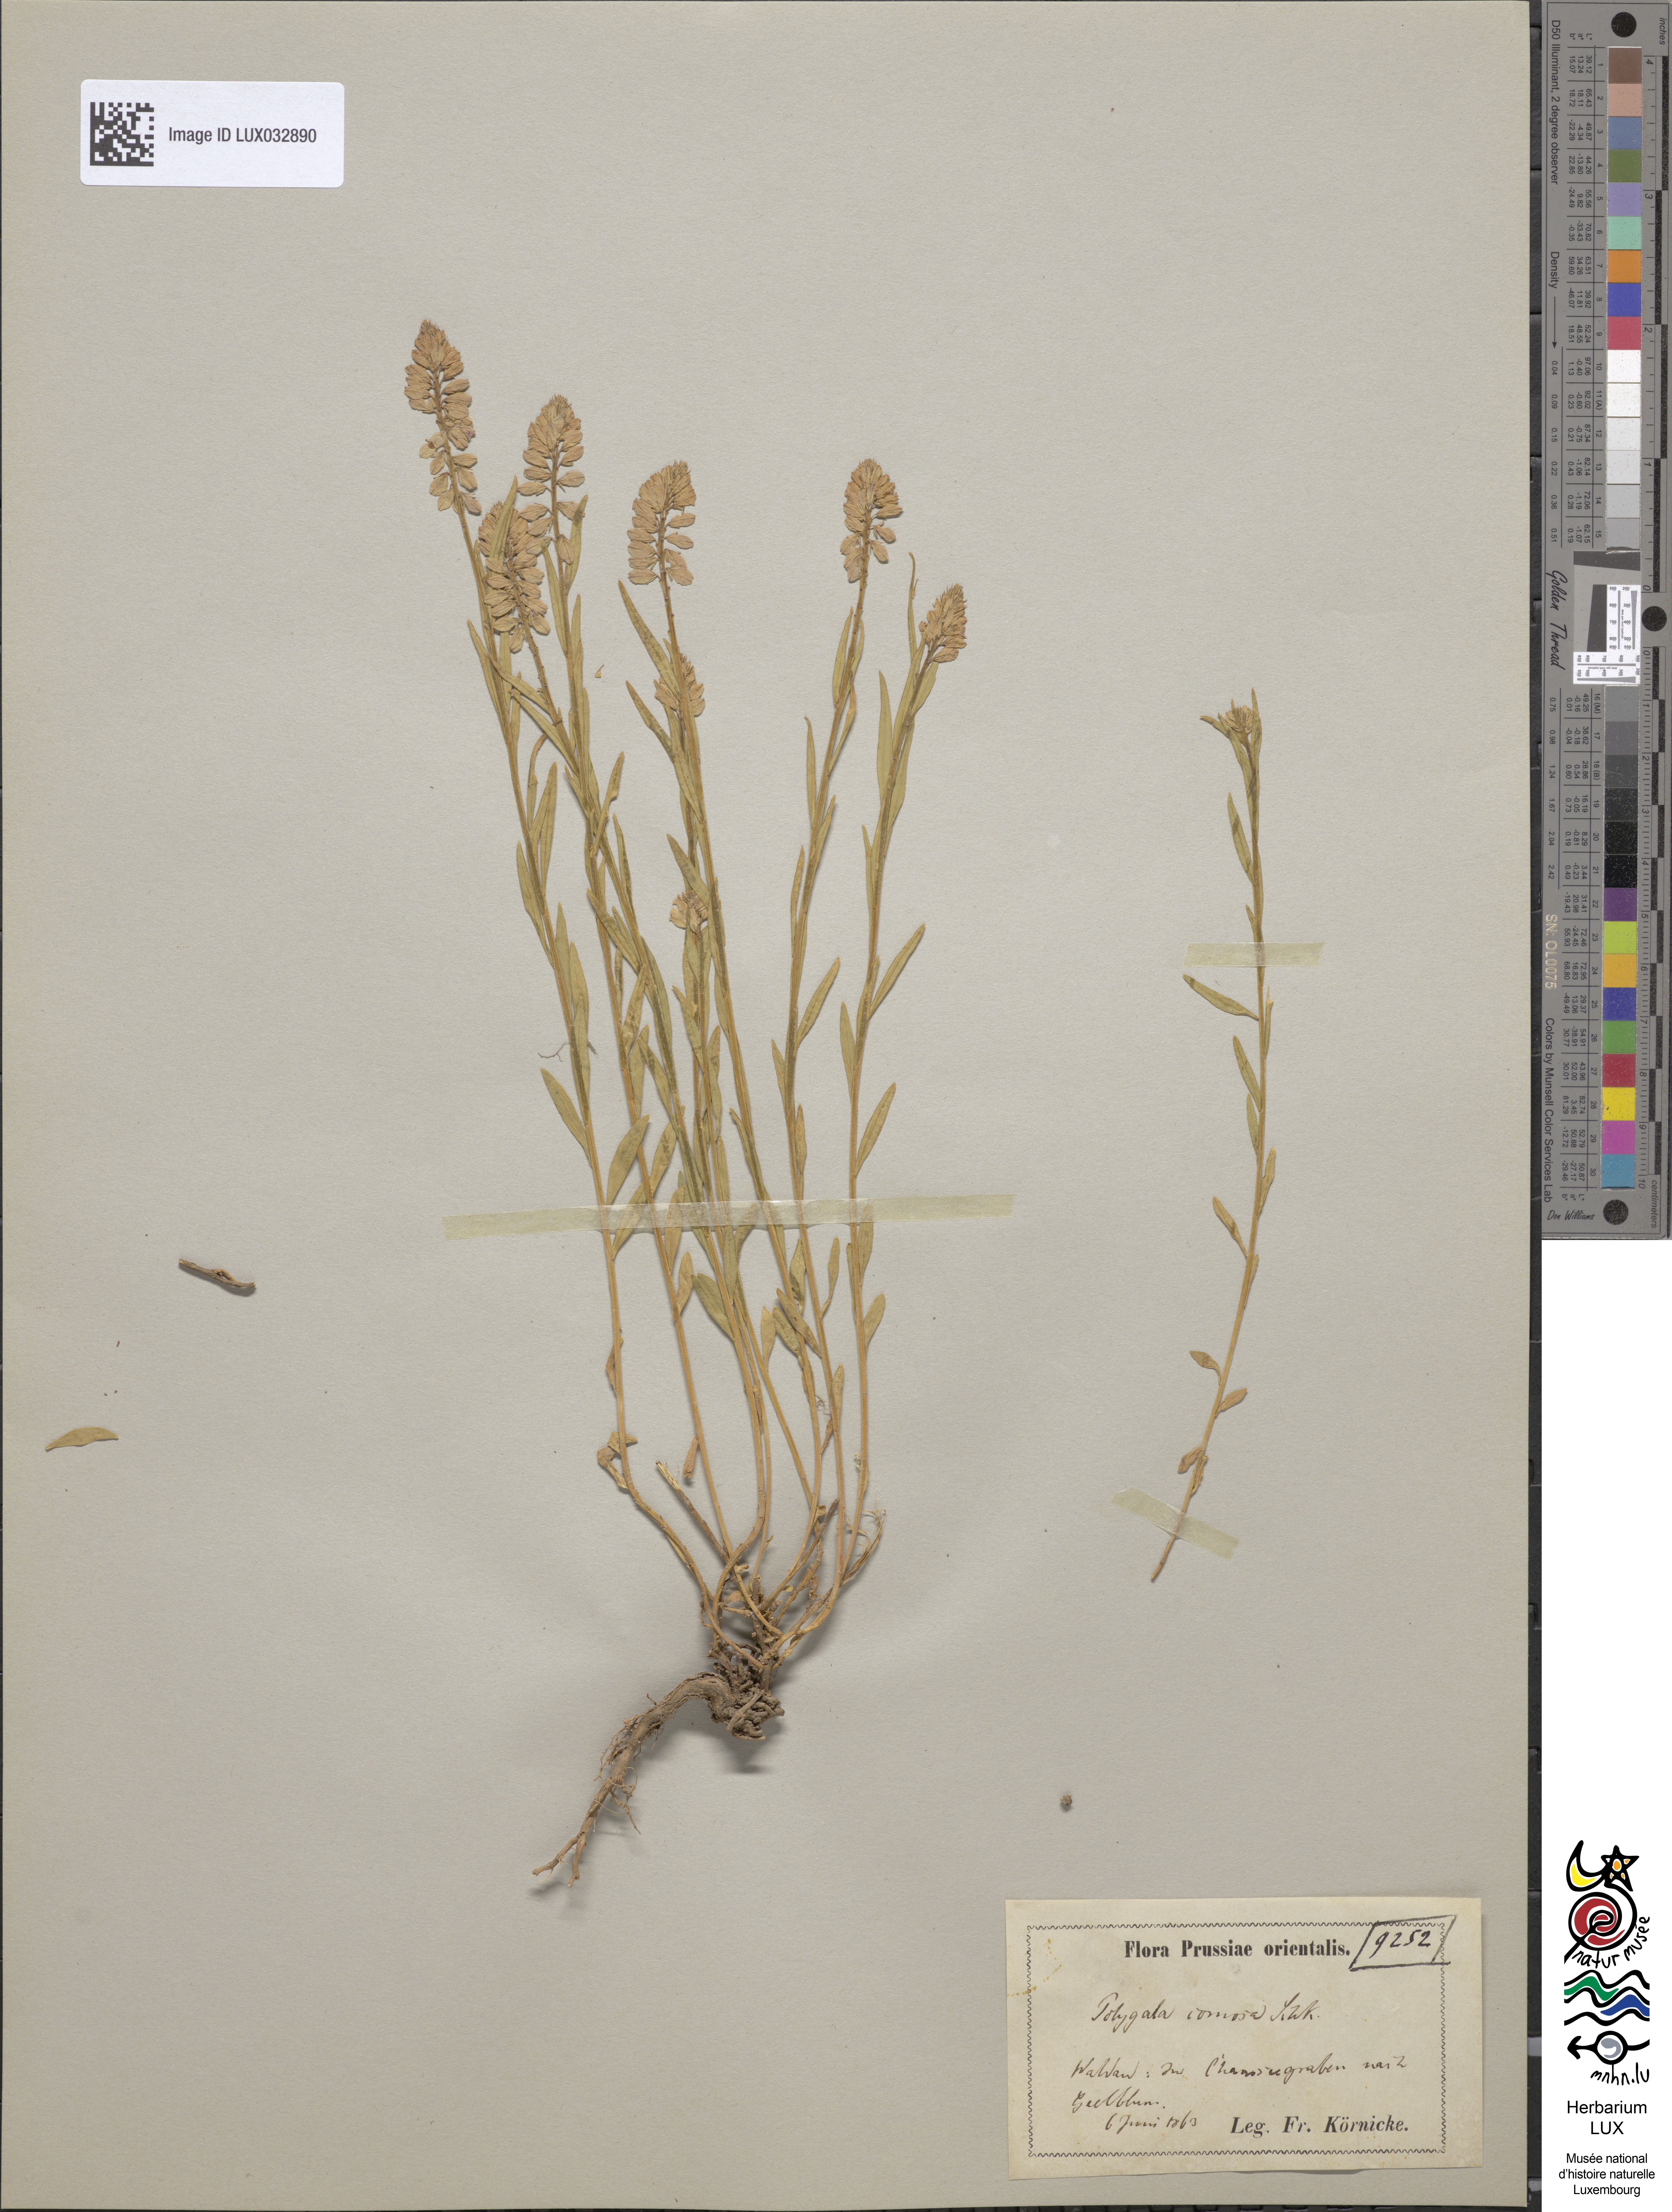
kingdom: Plantae
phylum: Tracheophyta
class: Magnoliopsida
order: Fabales
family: Polygalaceae
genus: Polygala
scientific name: Polygala comosa
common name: Tufted milkwort
